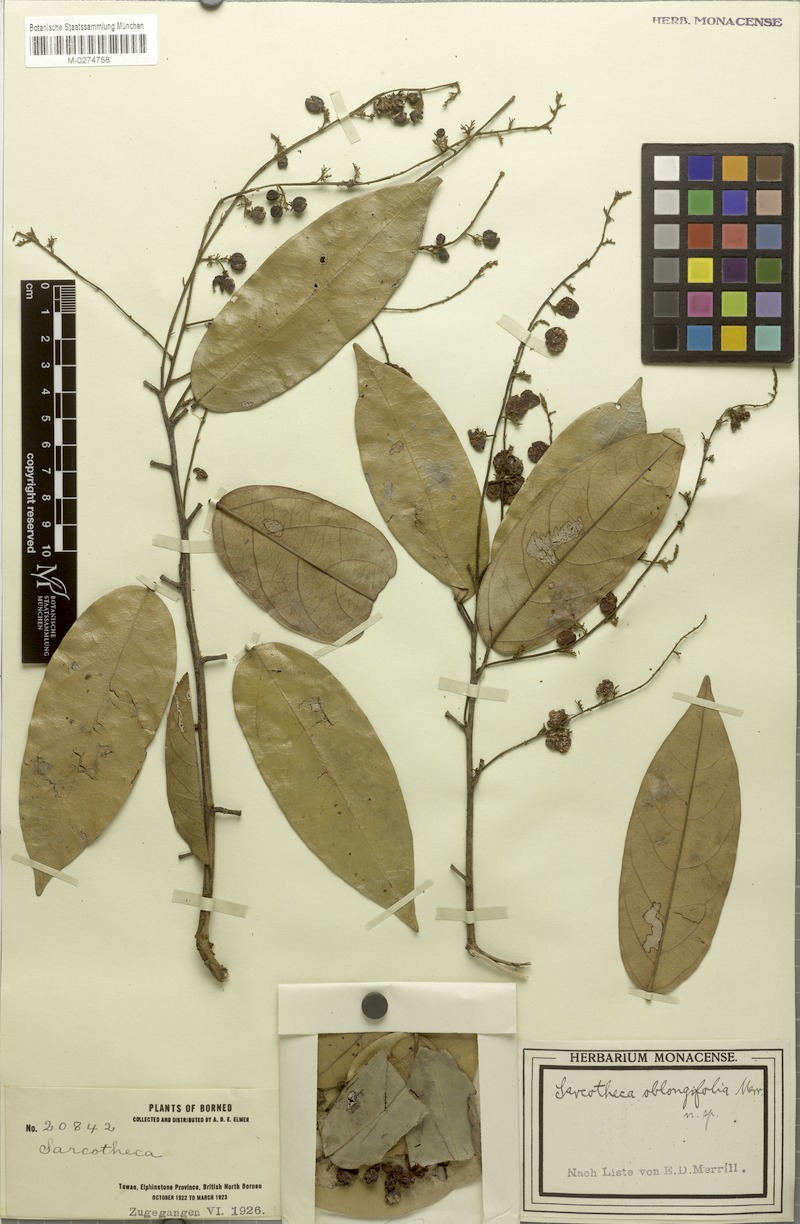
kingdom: Plantae
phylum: Tracheophyta
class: Magnoliopsida
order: Oxalidales
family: Oxalidaceae
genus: Sarcotheca
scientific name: Sarcotheca rubrinervis
